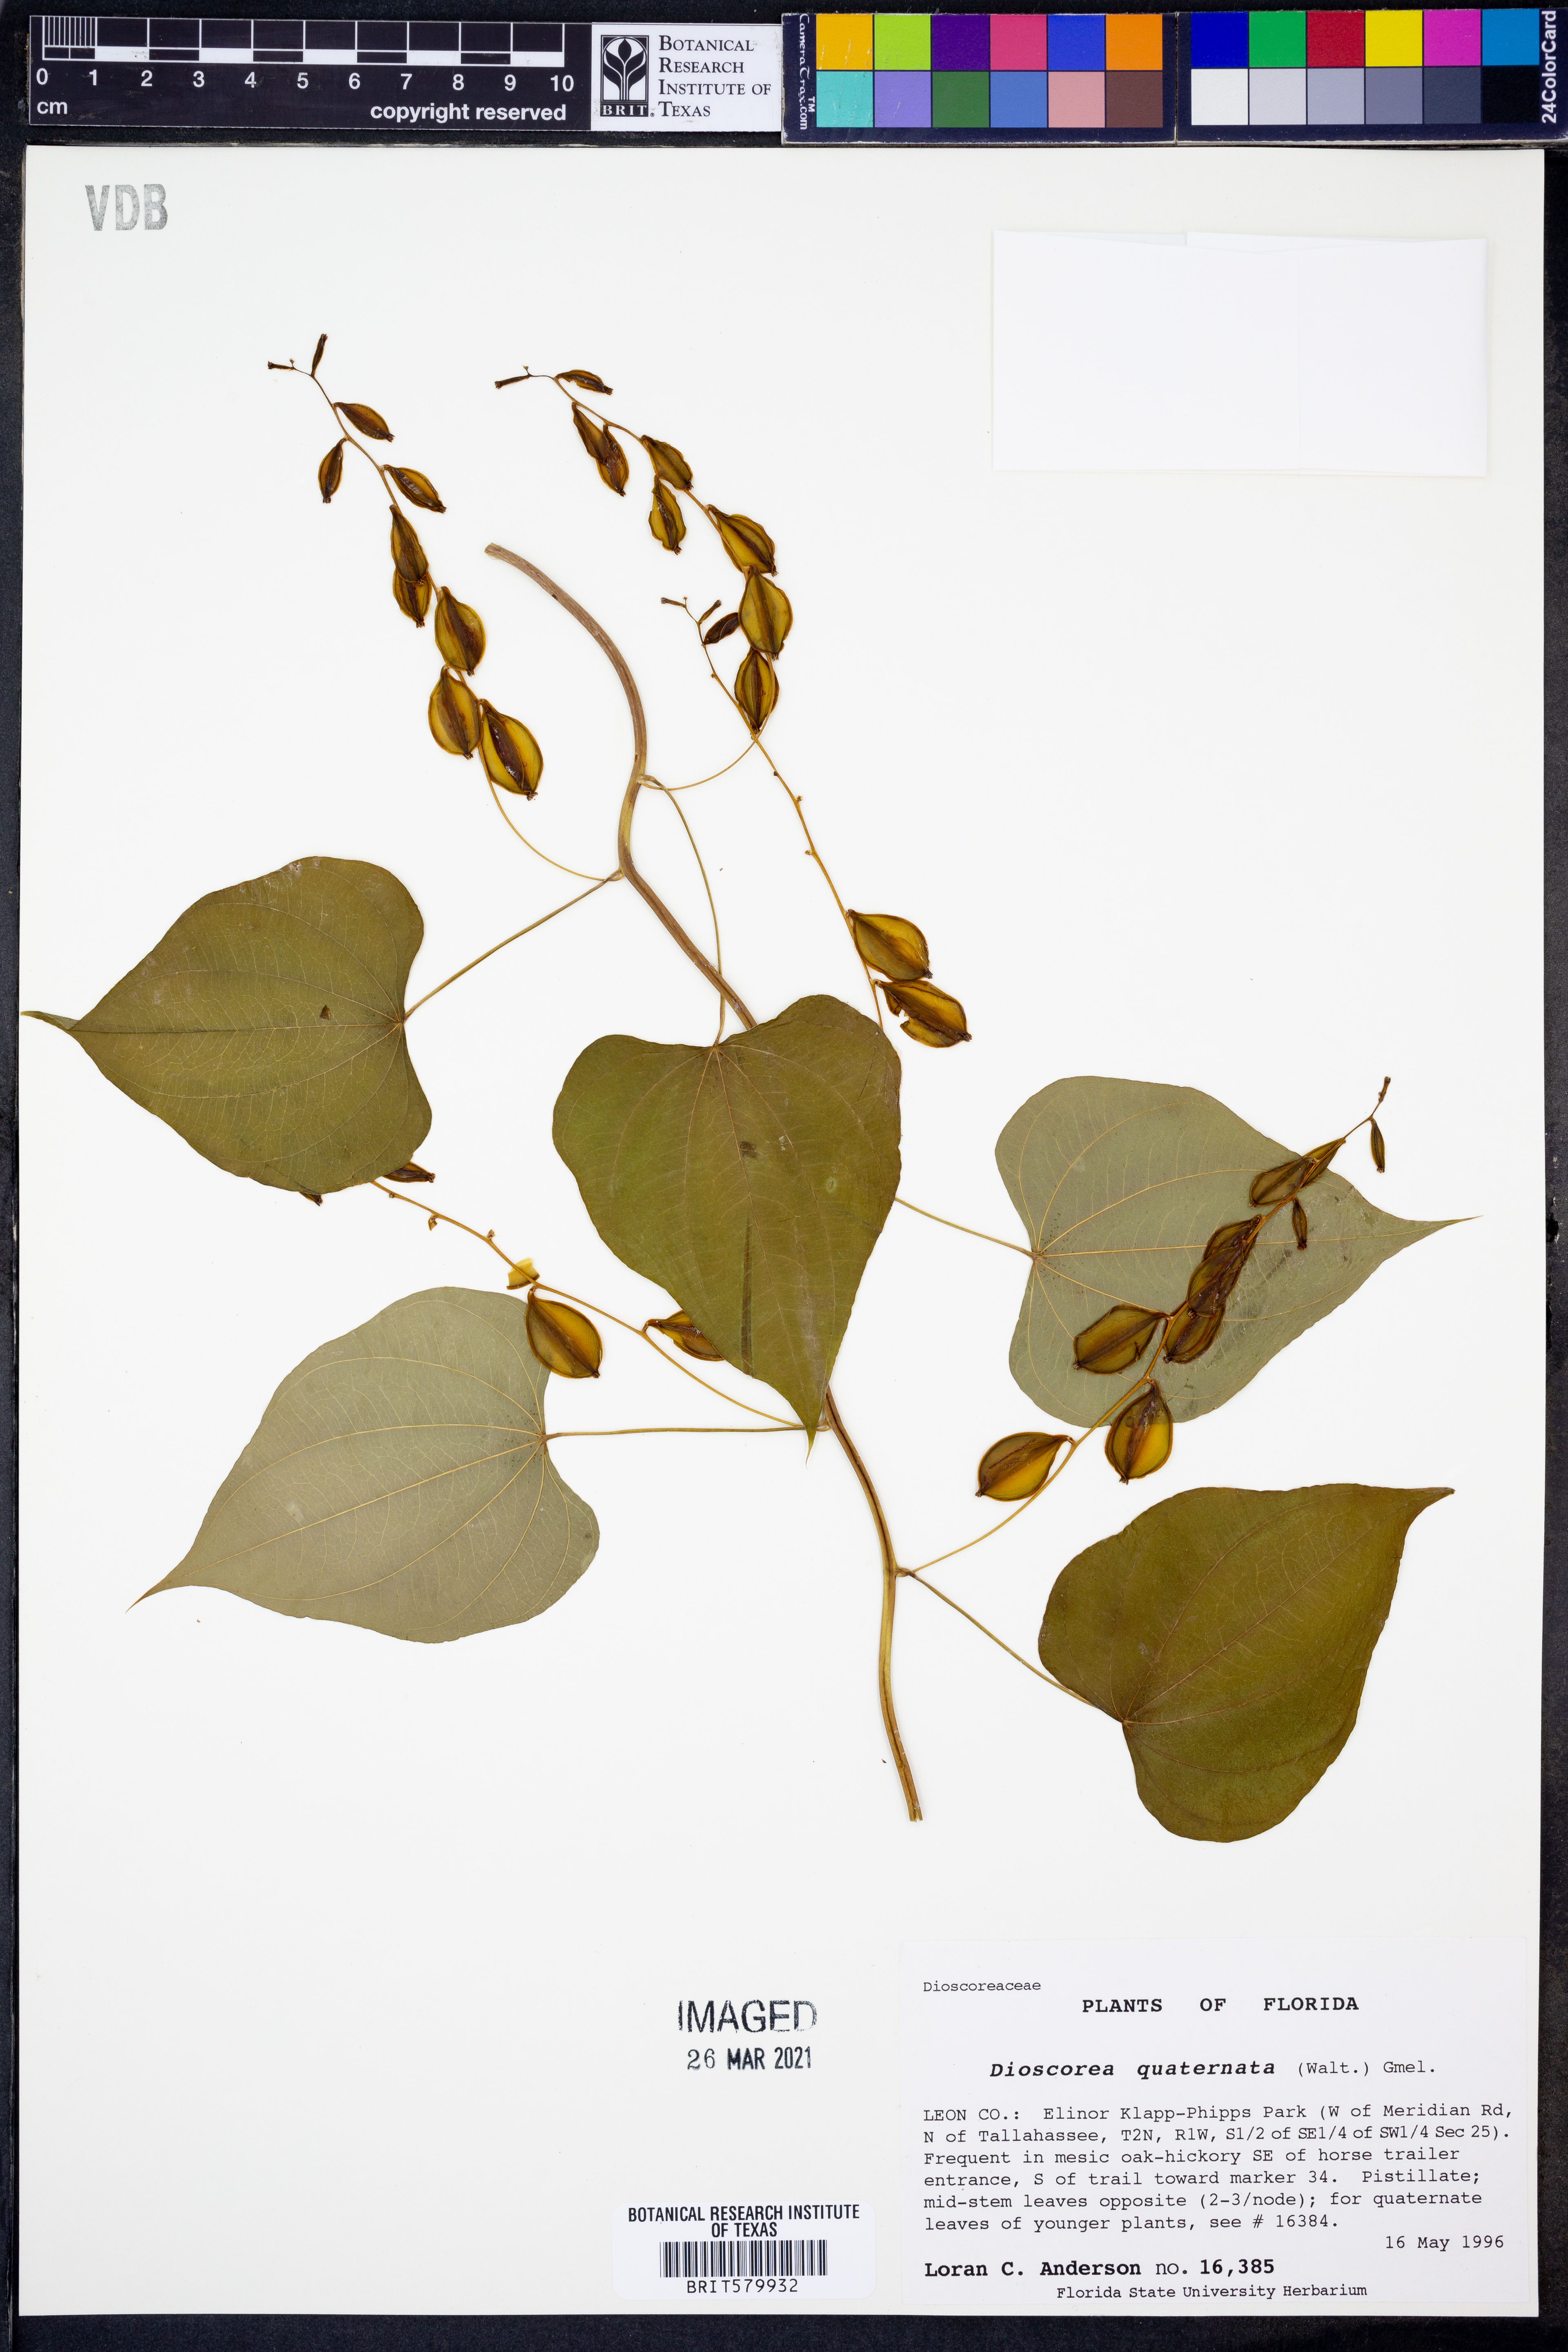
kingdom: Plantae
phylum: Tracheophyta
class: Liliopsida
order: Dioscoreales
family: Dioscoreaceae
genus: Dioscorea
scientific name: Dioscorea quaternata
